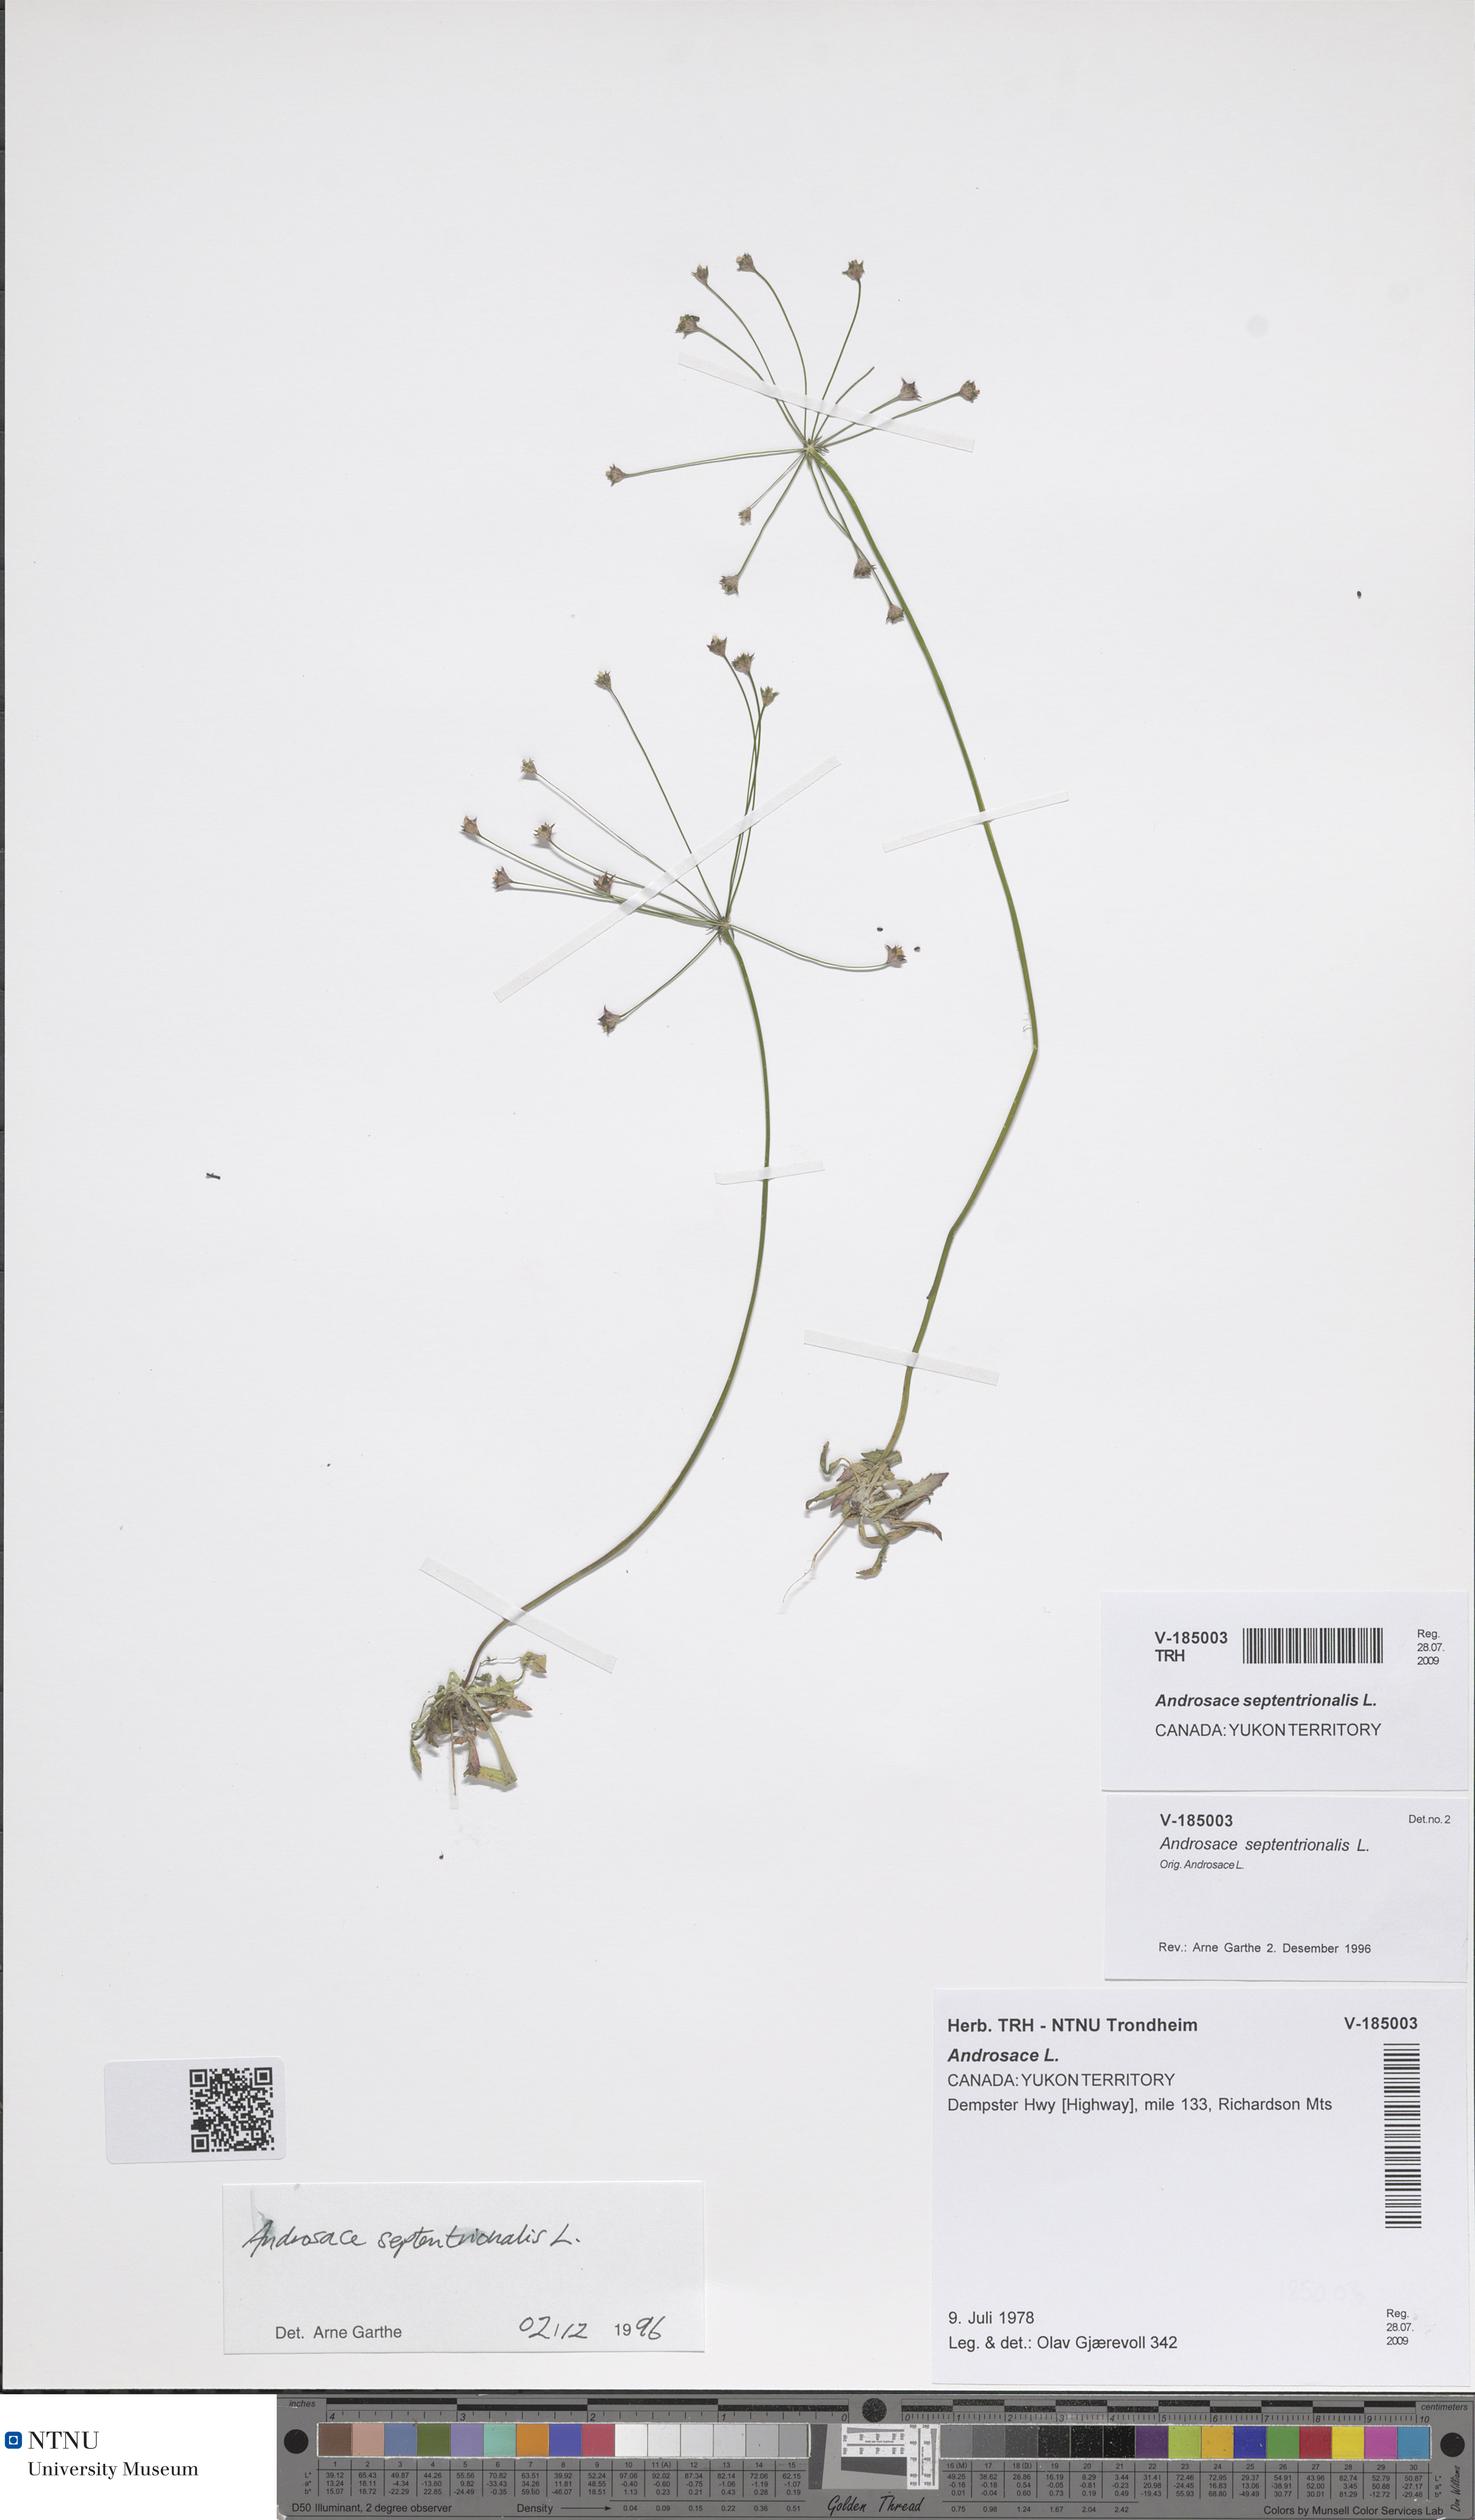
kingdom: Plantae
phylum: Tracheophyta
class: Magnoliopsida
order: Ericales
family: Primulaceae
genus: Androsace
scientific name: Androsace septentrionalis
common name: Hairy northern fairy-candelabra
